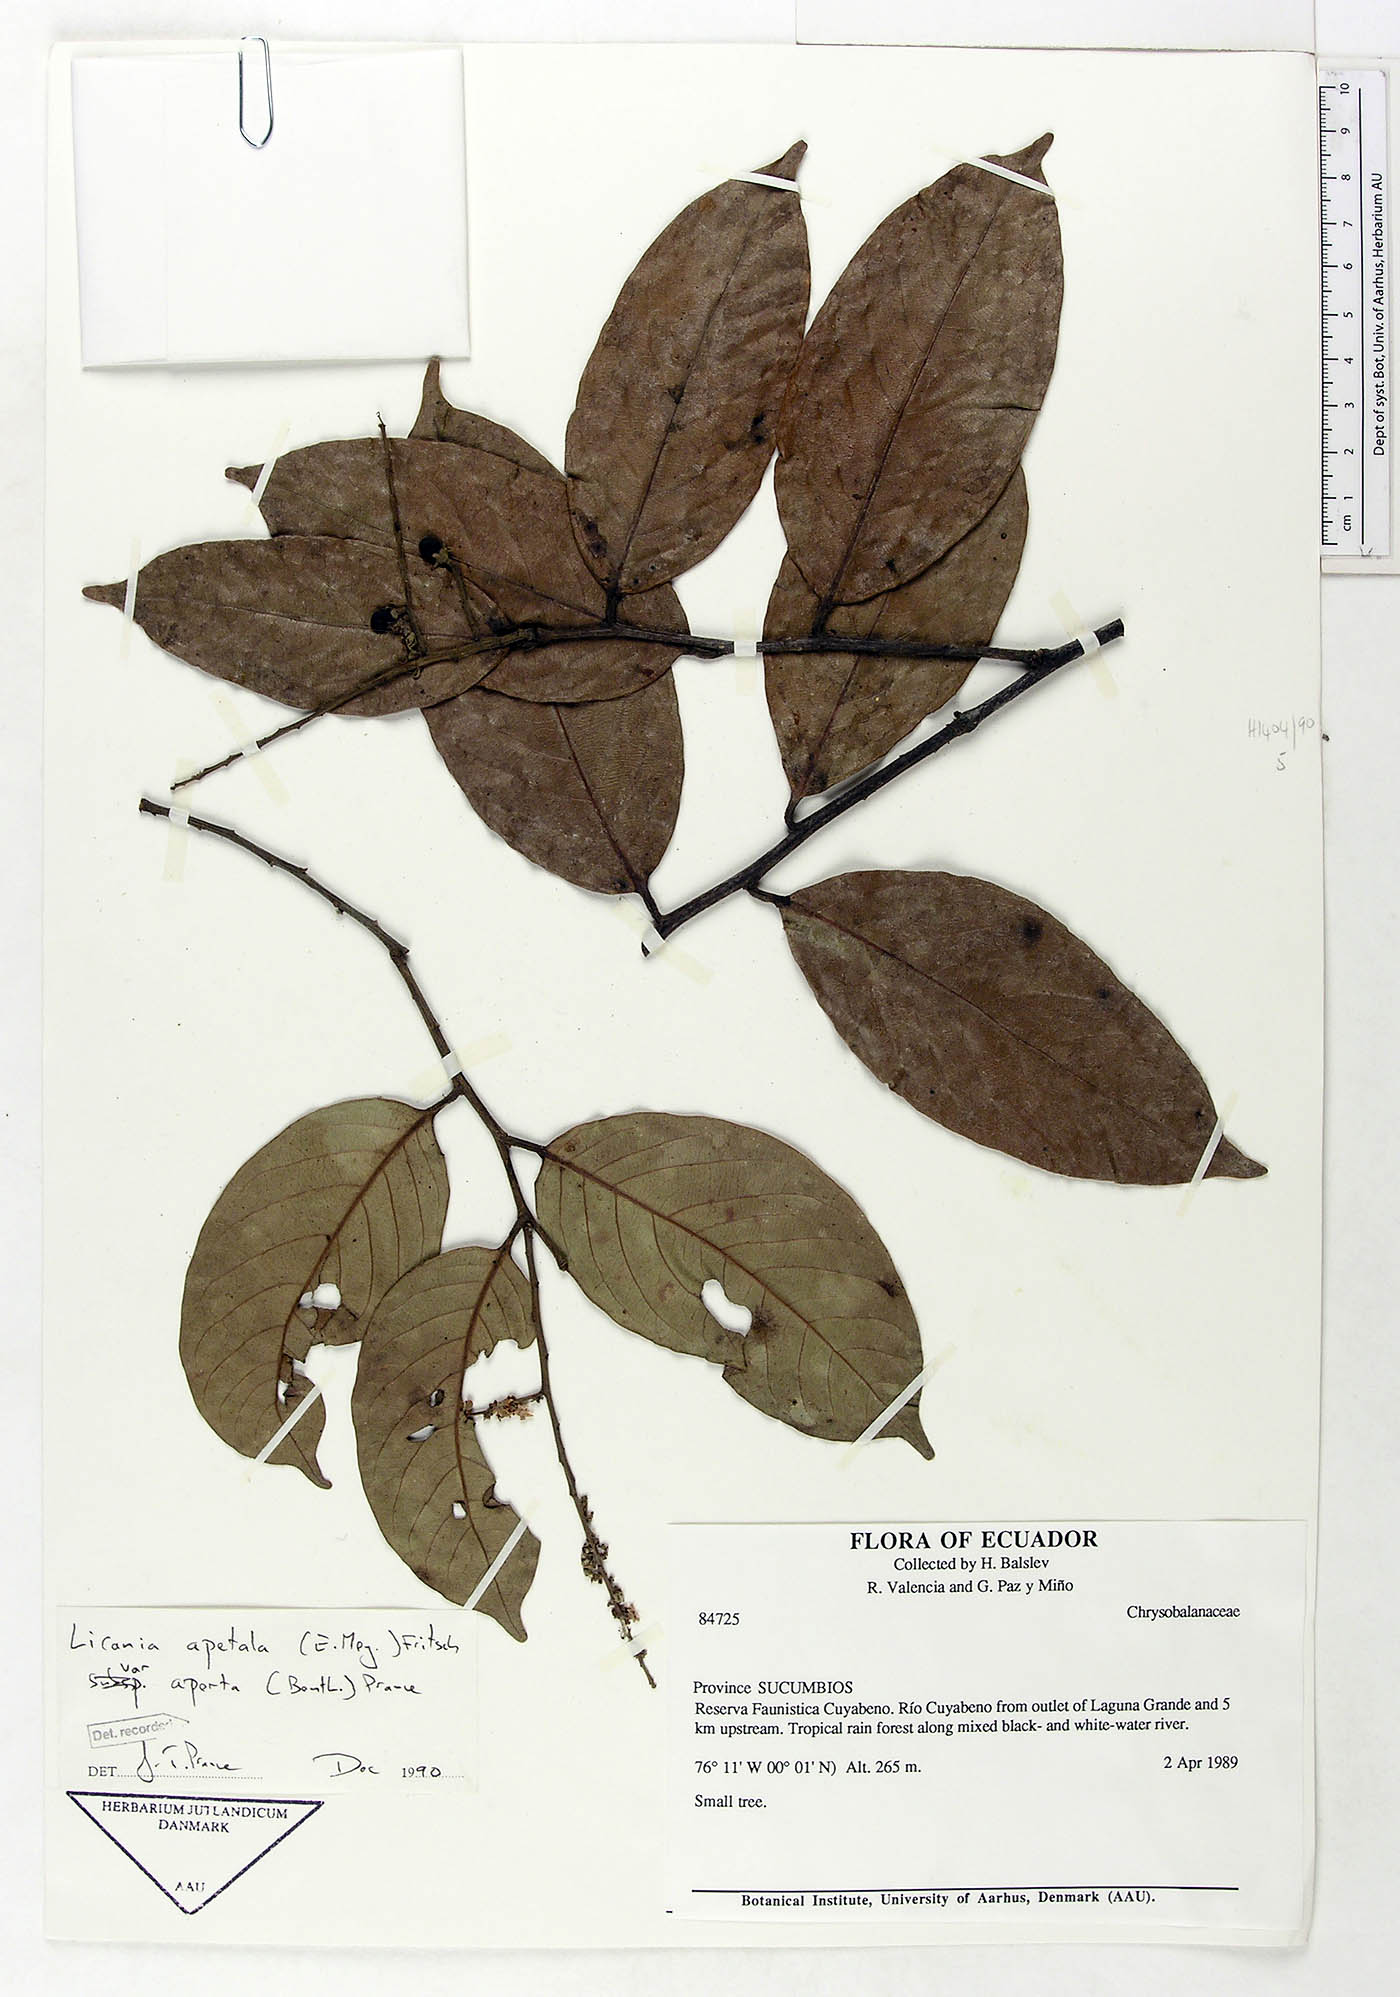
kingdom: Plantae
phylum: Tracheophyta
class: Magnoliopsida
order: Malpighiales
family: Chrysobalanaceae
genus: Leptobalanus
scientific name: Leptobalanus apetalus
